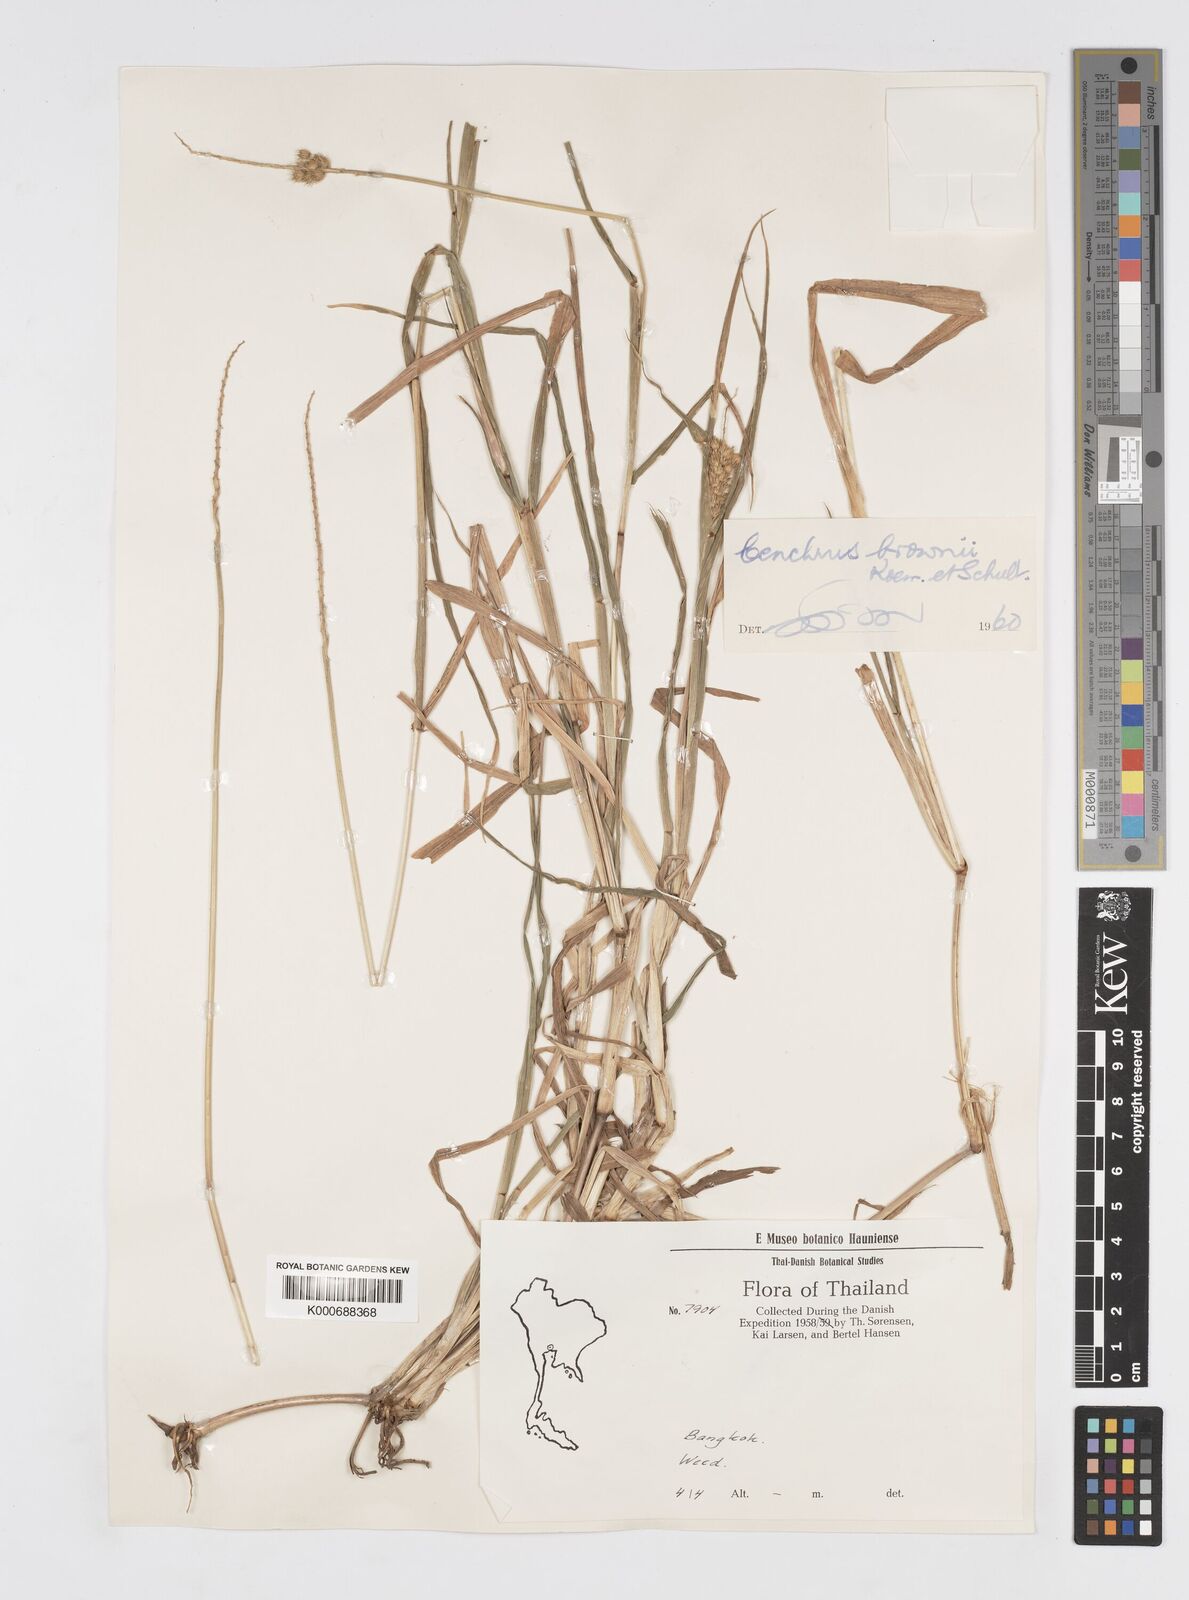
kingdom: Plantae
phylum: Tracheophyta
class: Liliopsida
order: Poales
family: Poaceae
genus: Cenchrus
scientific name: Cenchrus brownii
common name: Slim-bristle sandbur
